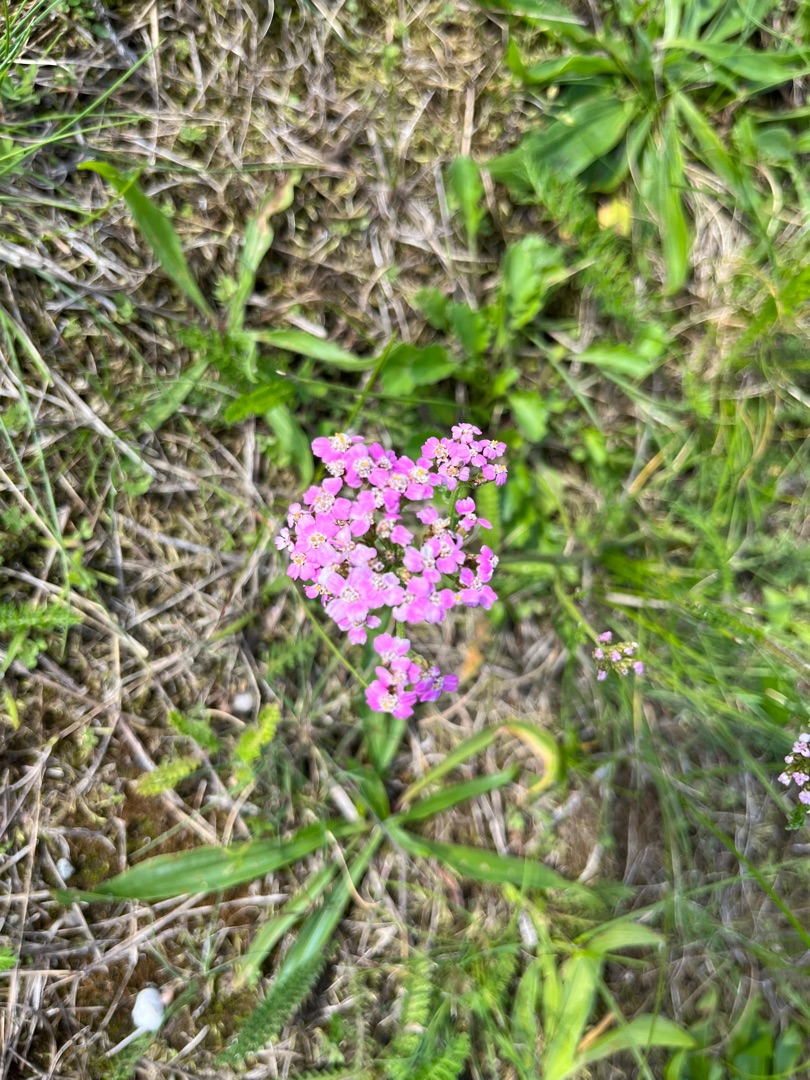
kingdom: Plantae
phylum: Tracheophyta
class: Magnoliopsida
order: Asterales
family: Asteraceae
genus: Achillea
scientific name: Achillea millefolium
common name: Almindelig røllike
